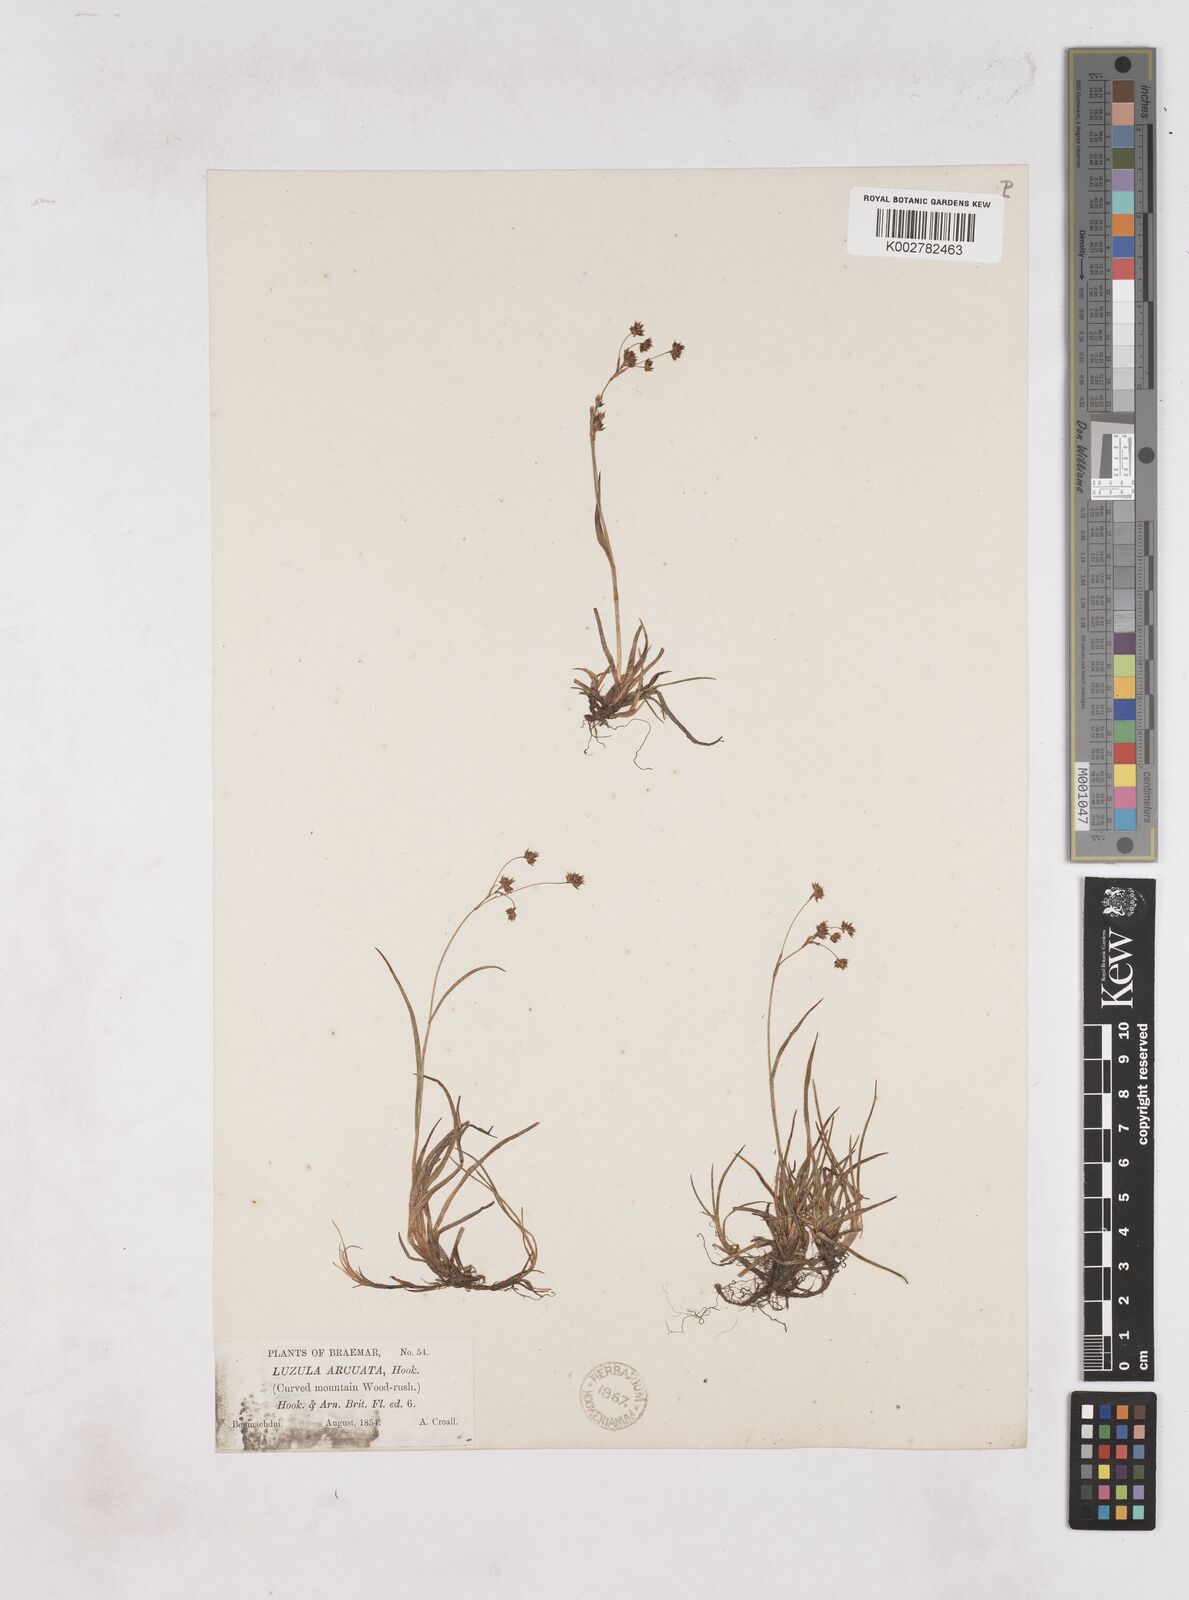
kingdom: Plantae
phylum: Tracheophyta
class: Liliopsida
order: Poales
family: Juncaceae
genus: Luzula
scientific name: Luzula arcuata
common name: Curved wood-rush
